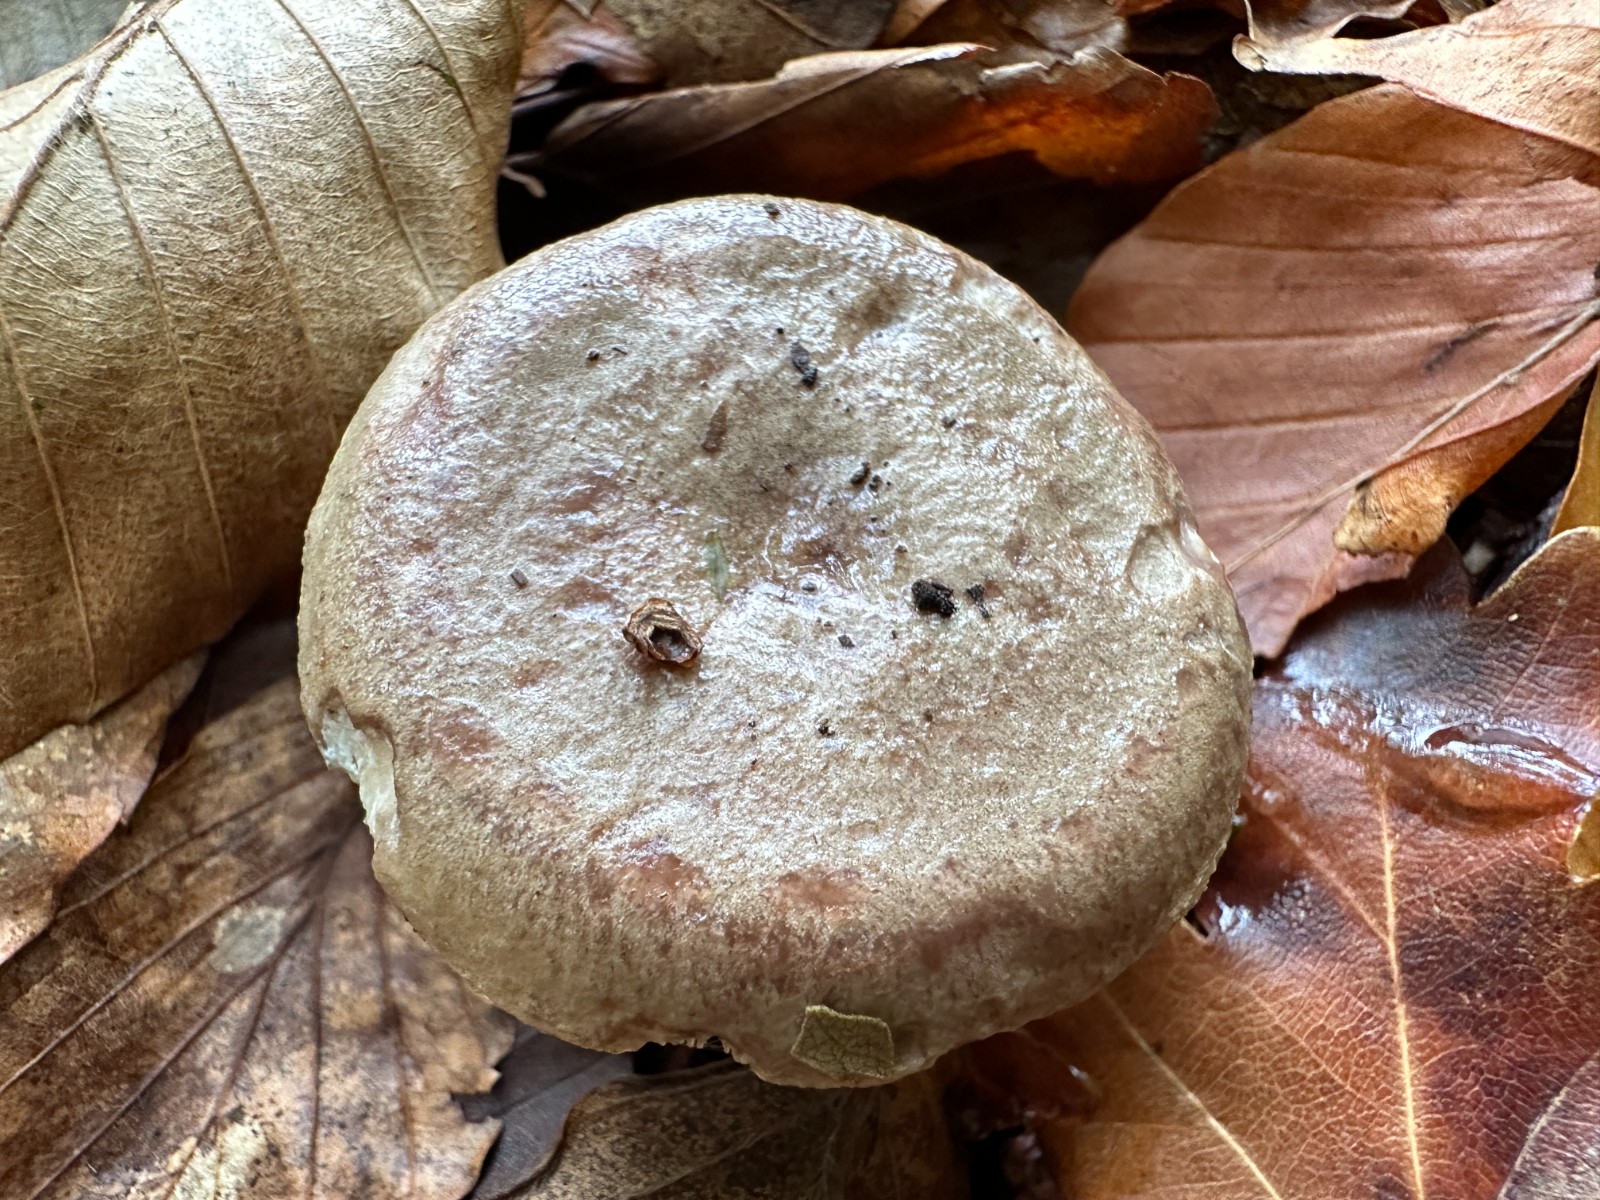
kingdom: Fungi
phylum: Basidiomycota
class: Agaricomycetes
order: Russulales
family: Russulaceae
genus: Lactarius
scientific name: Lactarius blennius
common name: dråbeplettet mælkehat
